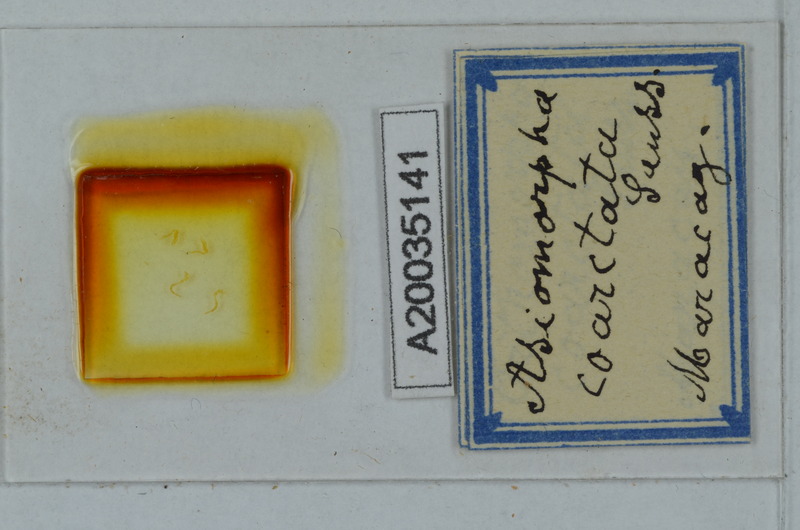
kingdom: Animalia
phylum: Arthropoda
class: Diplopoda
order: Polydesmida
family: Paradoxosomatidae
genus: Asiomorpha
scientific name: Asiomorpha coarctata
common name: Millipede
